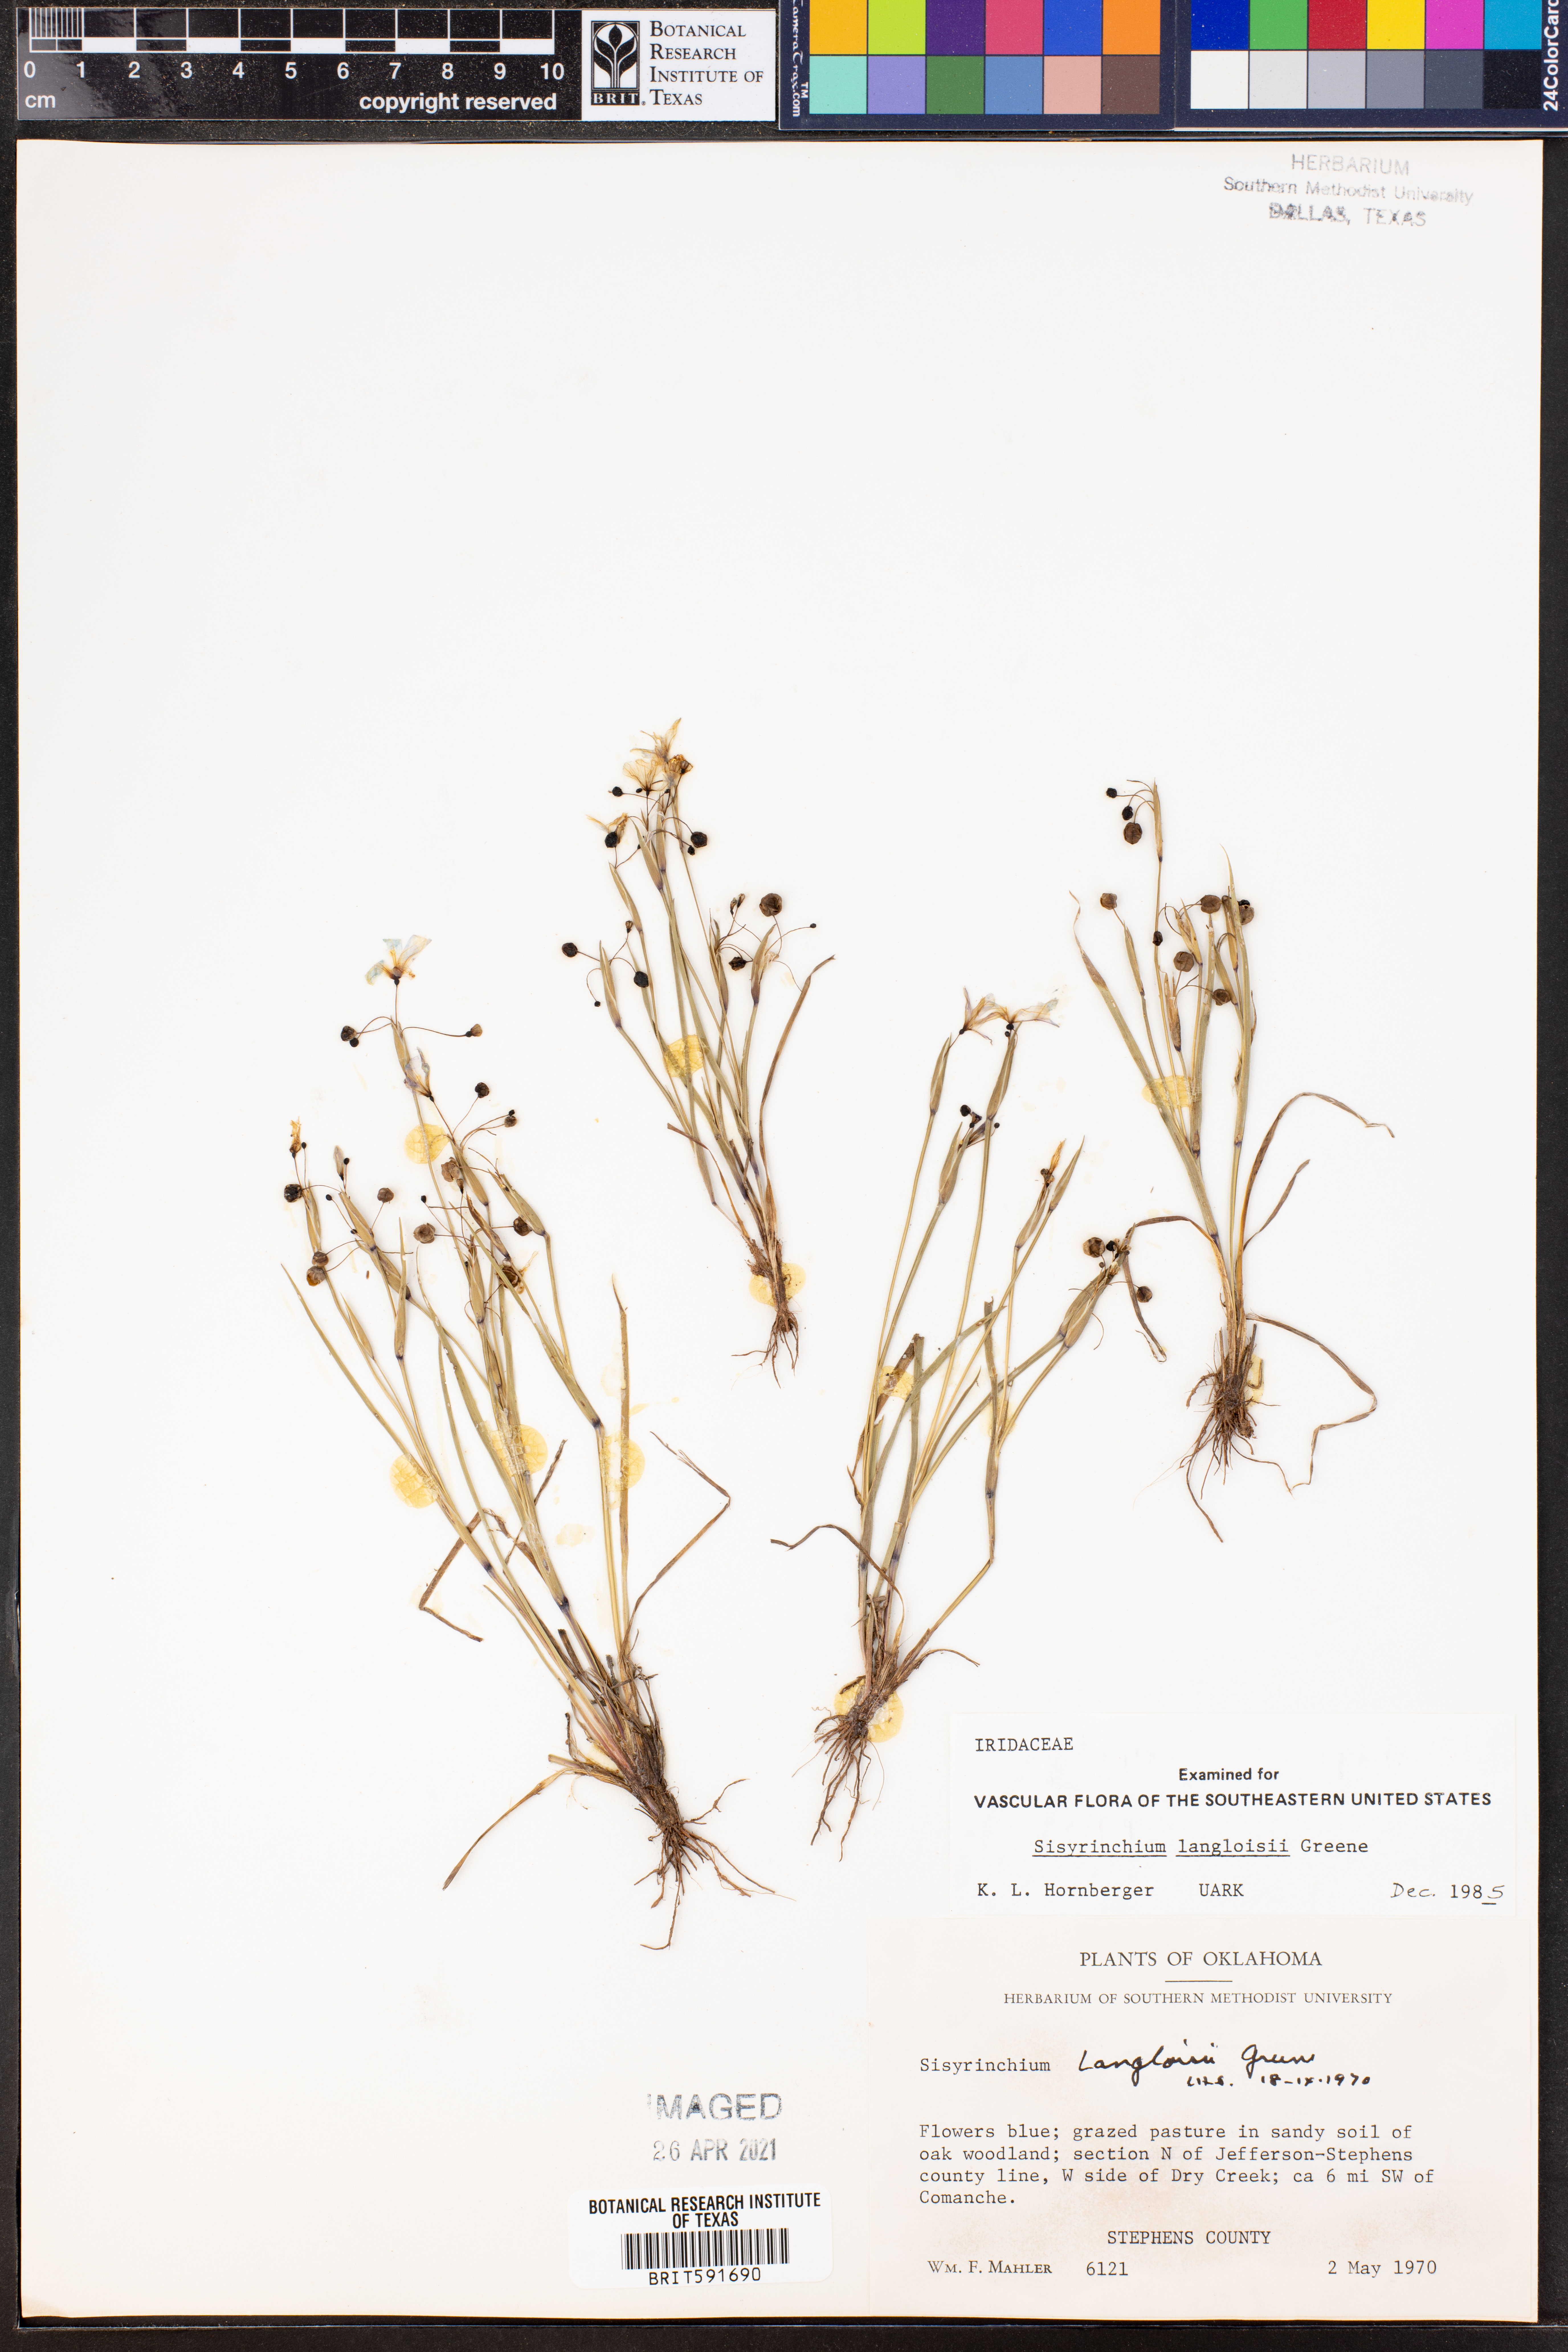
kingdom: Plantae
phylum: Tracheophyta
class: Liliopsida
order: Asparagales
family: Iridaceae
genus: Sisyrinchium
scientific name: Sisyrinchium langloisii
